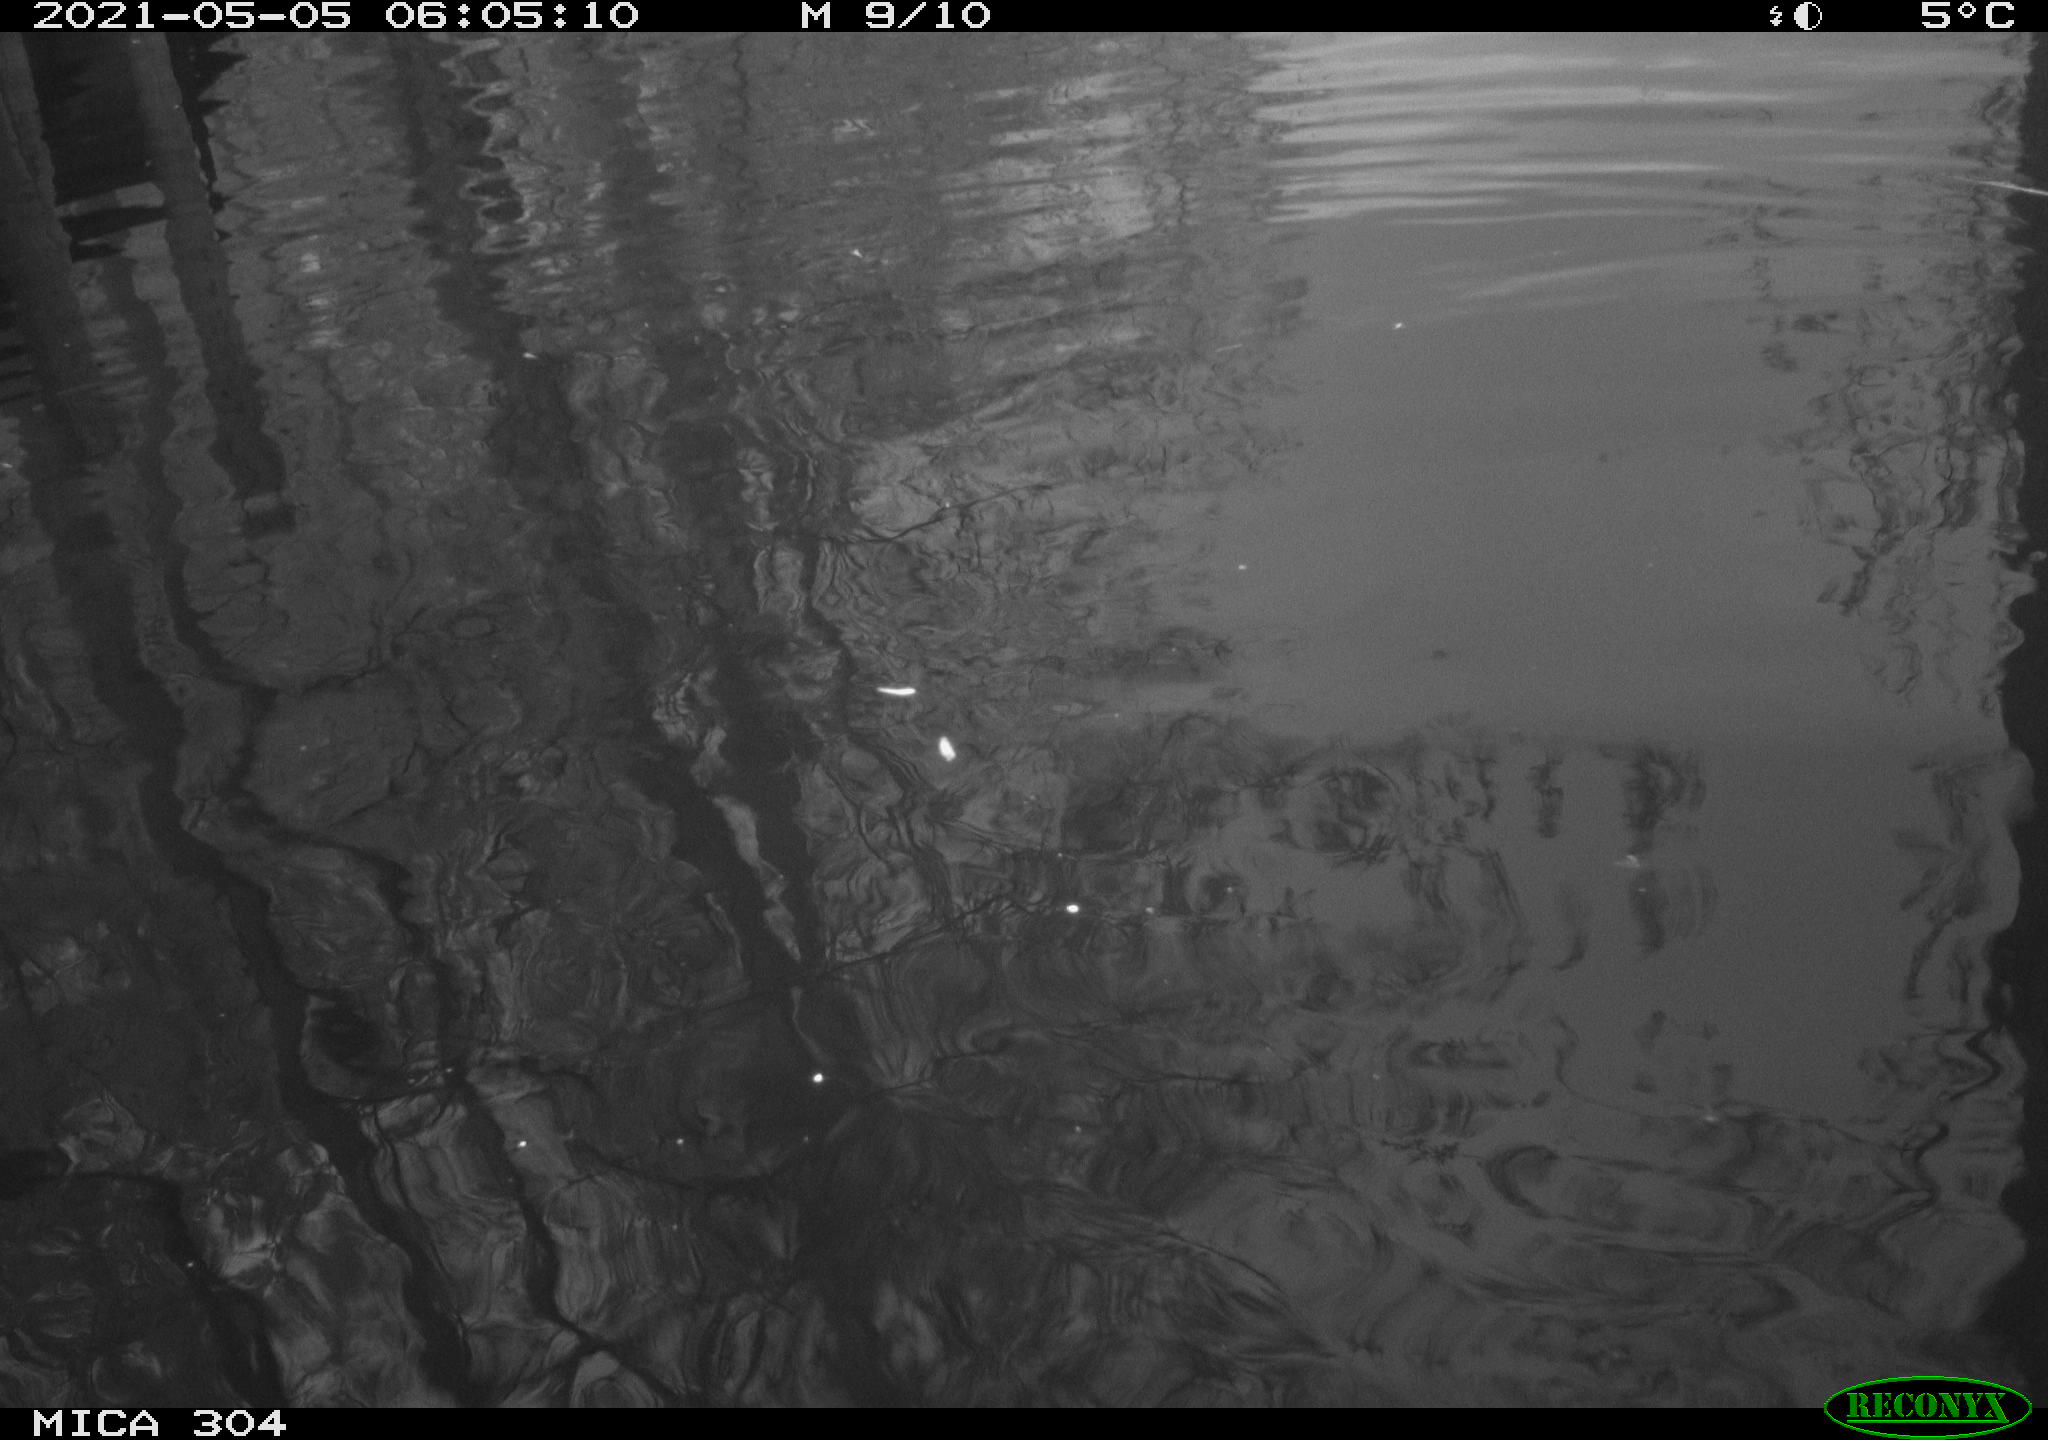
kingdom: Animalia
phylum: Chordata
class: Aves
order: Gruiformes
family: Rallidae
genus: Fulica
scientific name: Fulica atra
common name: Eurasian coot
